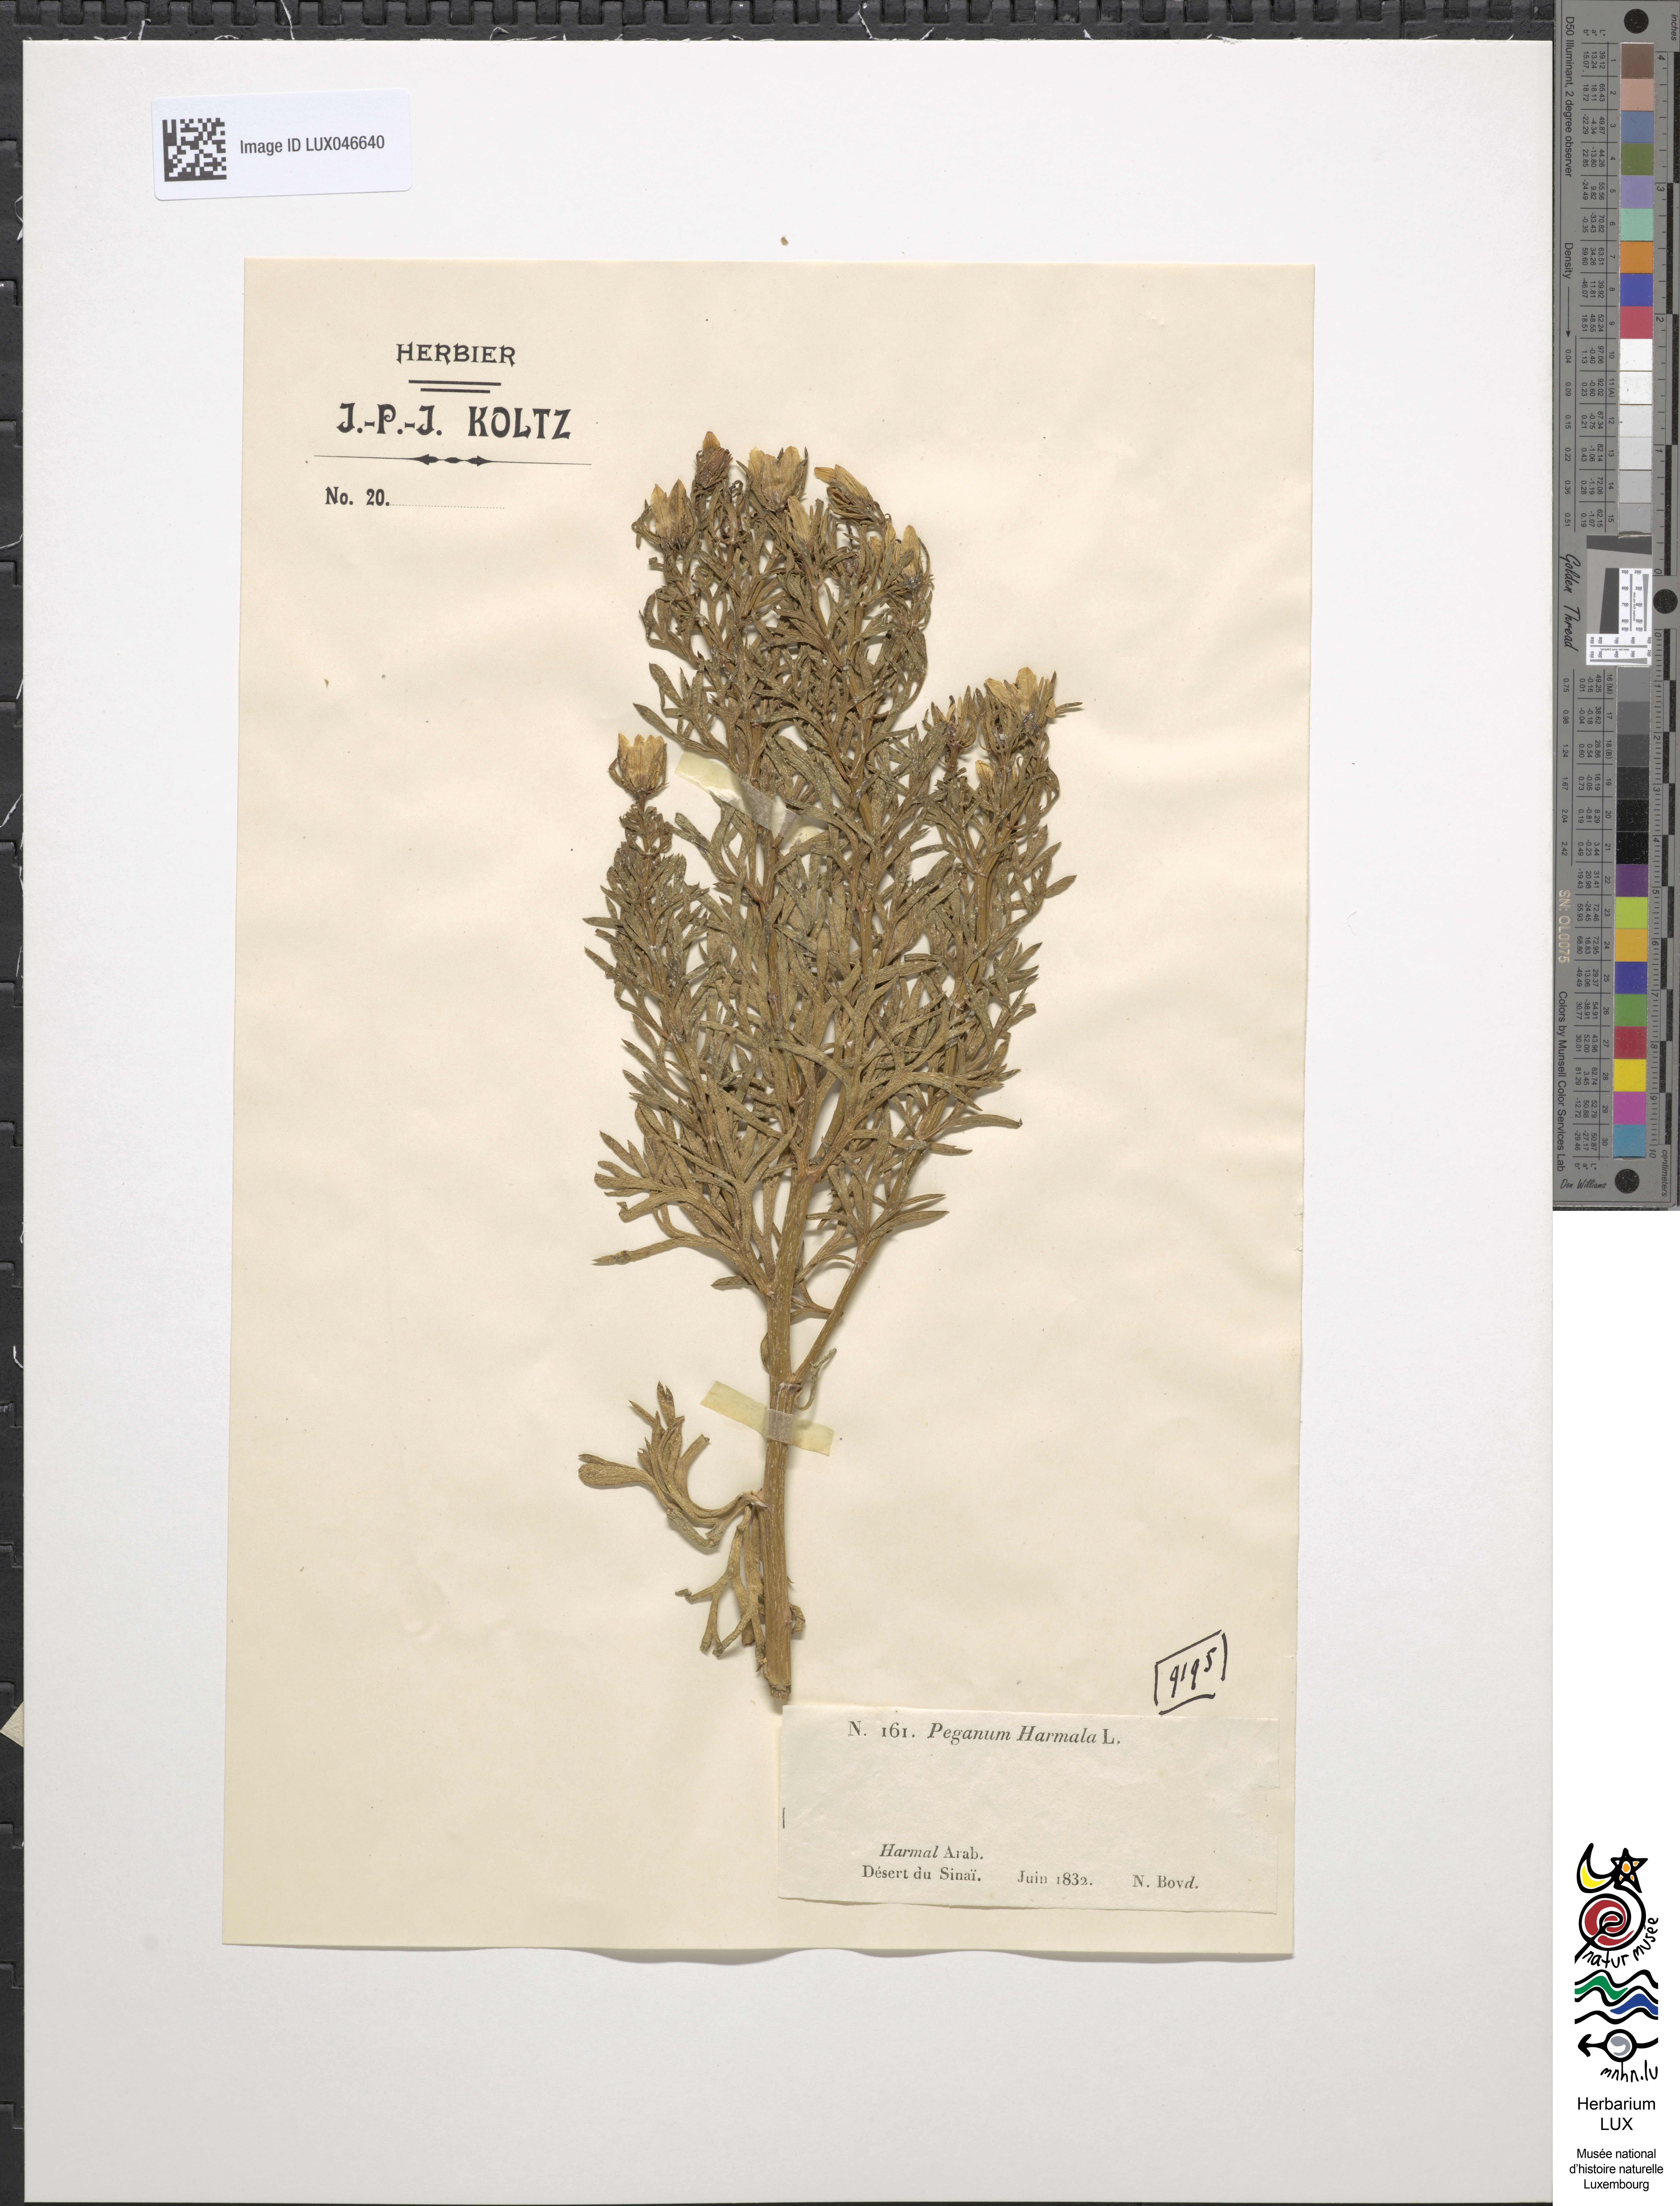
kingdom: Plantae
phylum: Tracheophyta
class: Magnoliopsida
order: Sapindales
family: Tetradiclidaceae
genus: Peganum
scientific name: Peganum harmala
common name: Harmal peganum
